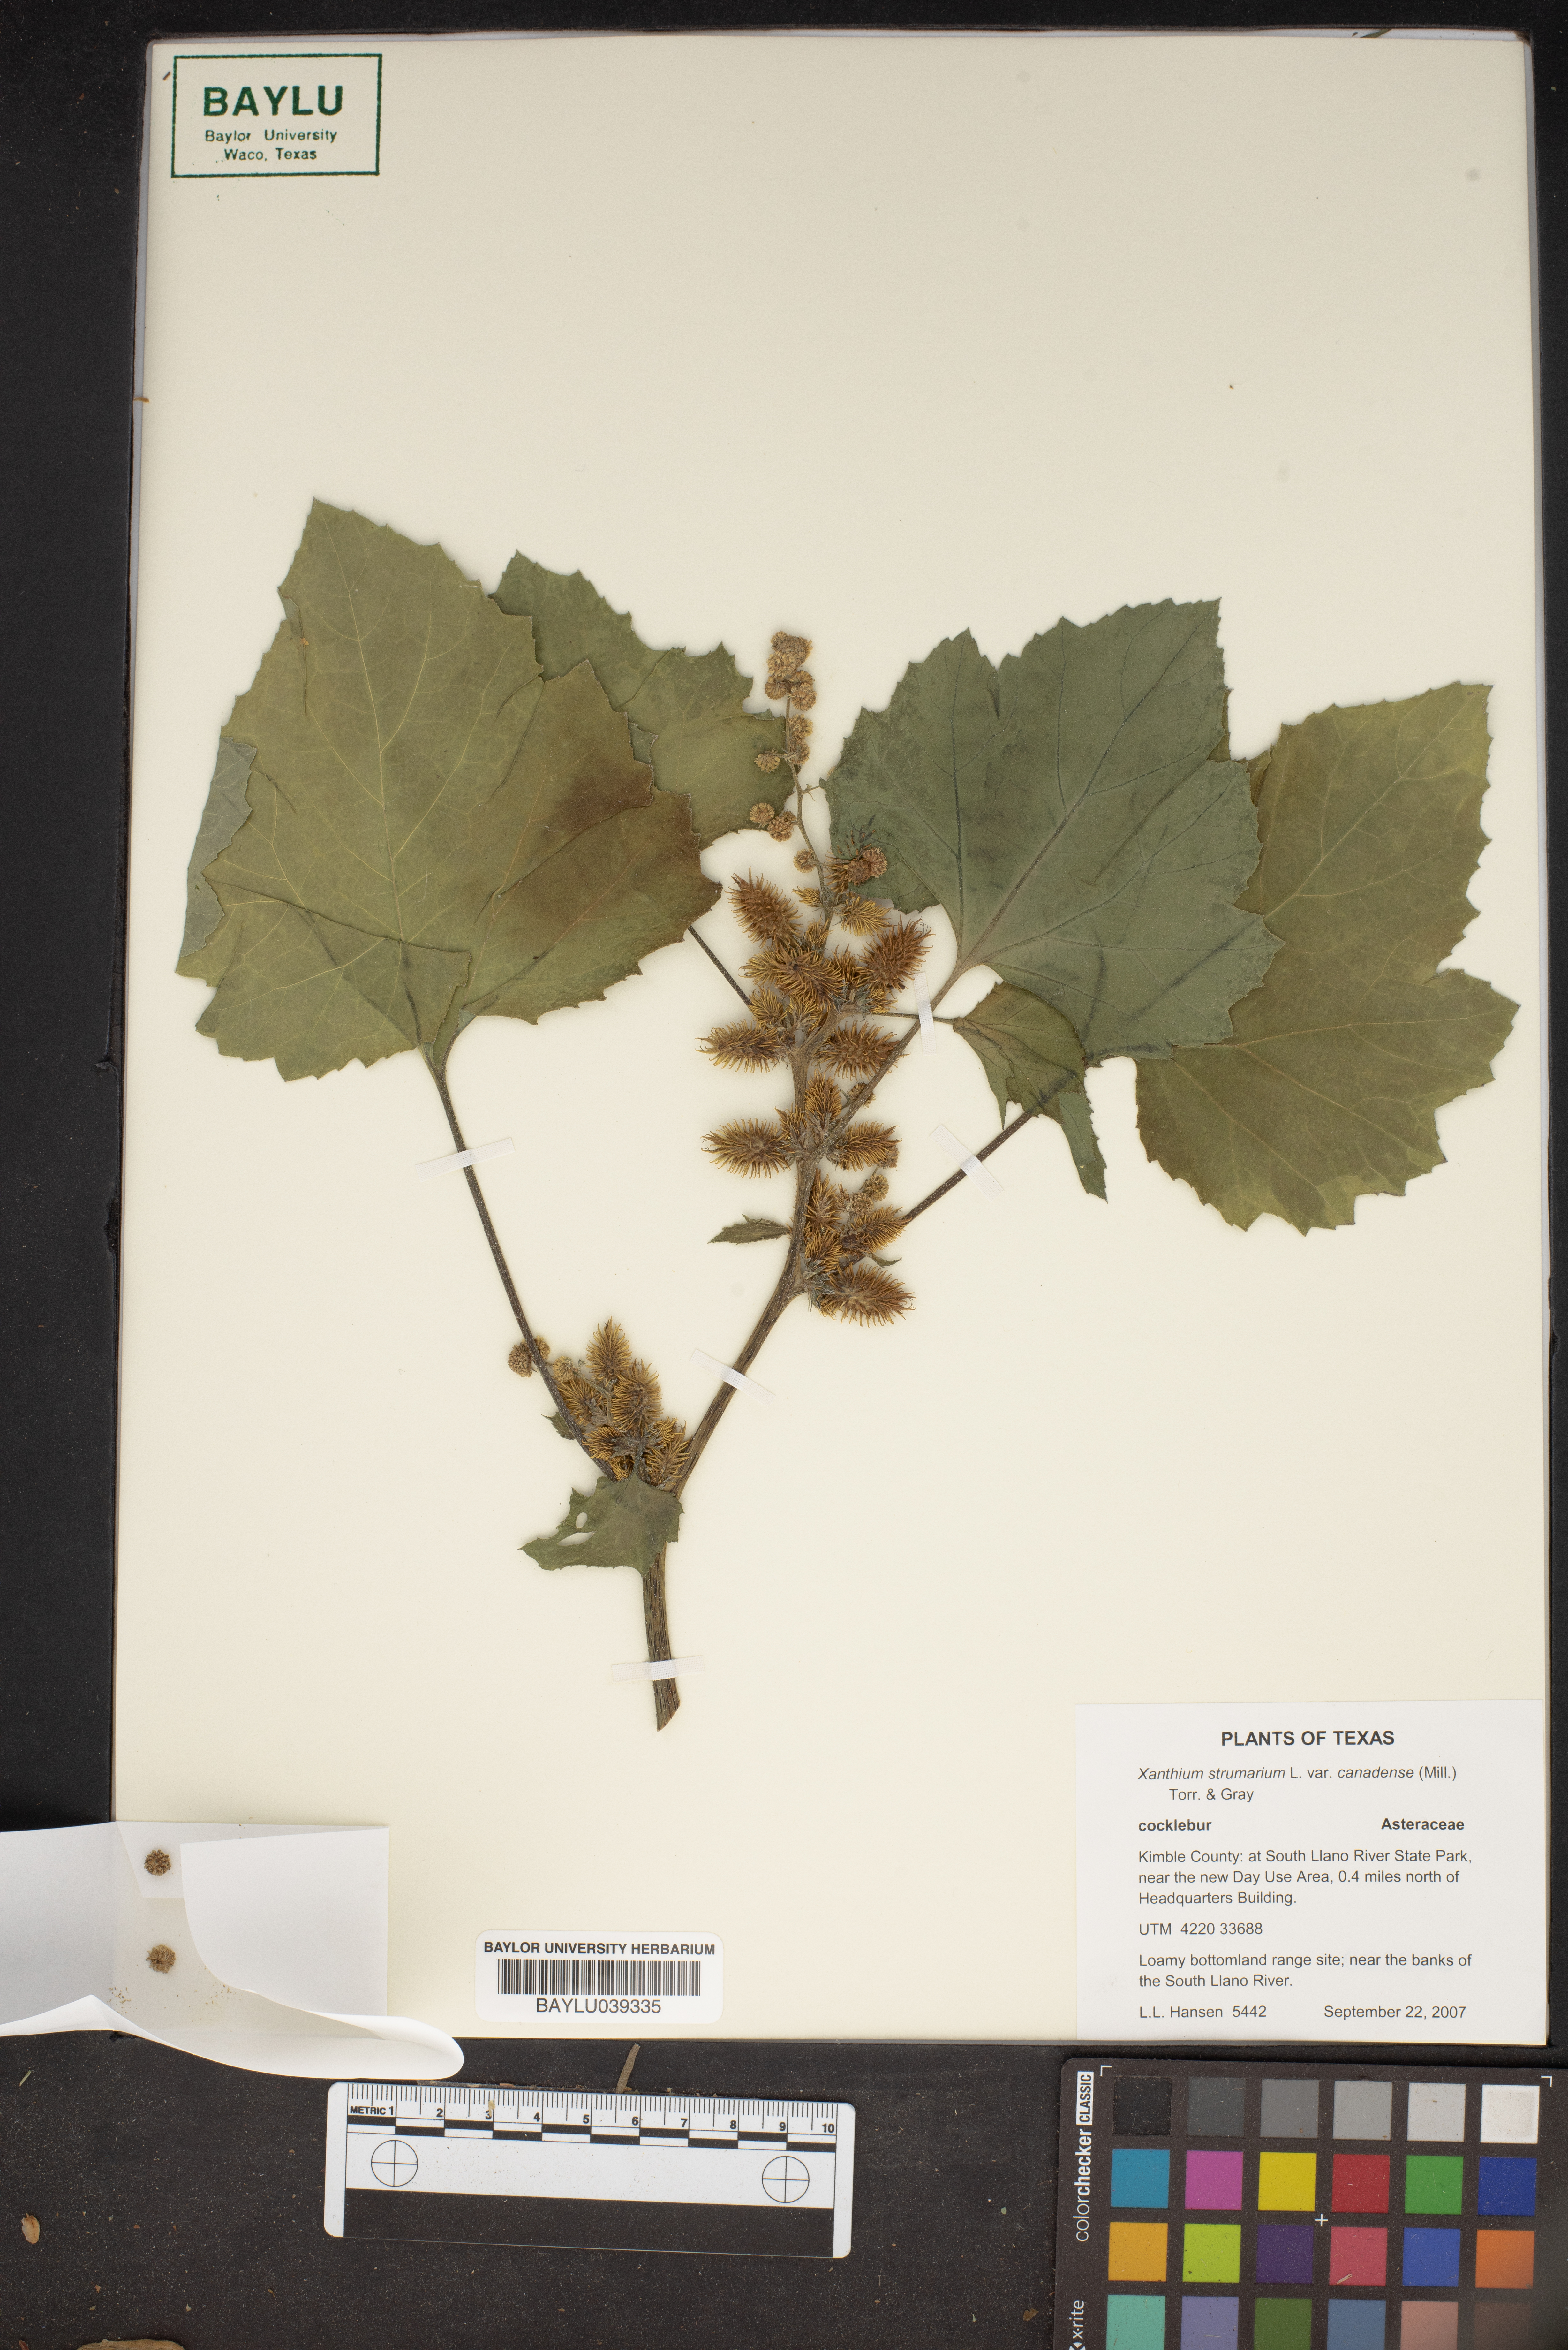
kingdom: Plantae
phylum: Tracheophyta
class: Magnoliopsida
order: Asterales
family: Asteraceae
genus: Xanthium
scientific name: Xanthium orientale
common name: Californian burr
